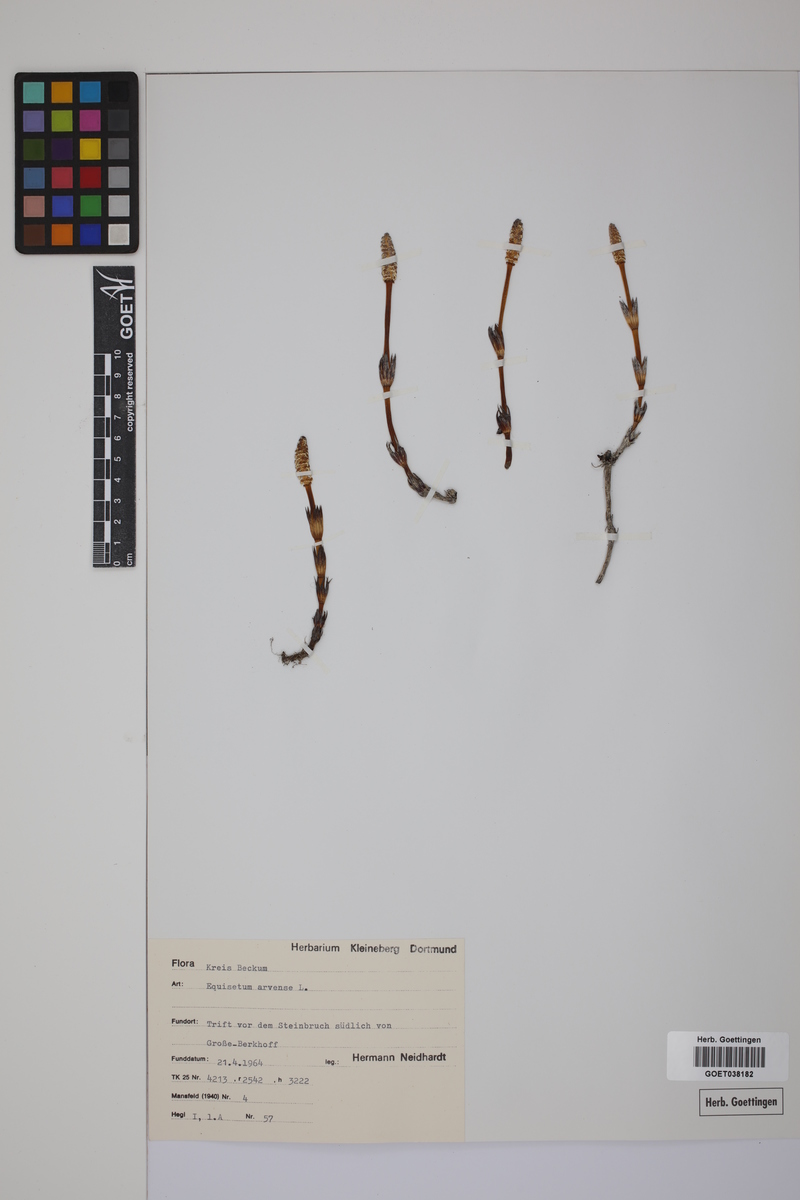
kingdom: Plantae
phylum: Tracheophyta
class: Polypodiopsida
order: Equisetales
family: Equisetaceae
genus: Equisetum
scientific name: Equisetum arvense
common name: Field horsetail
